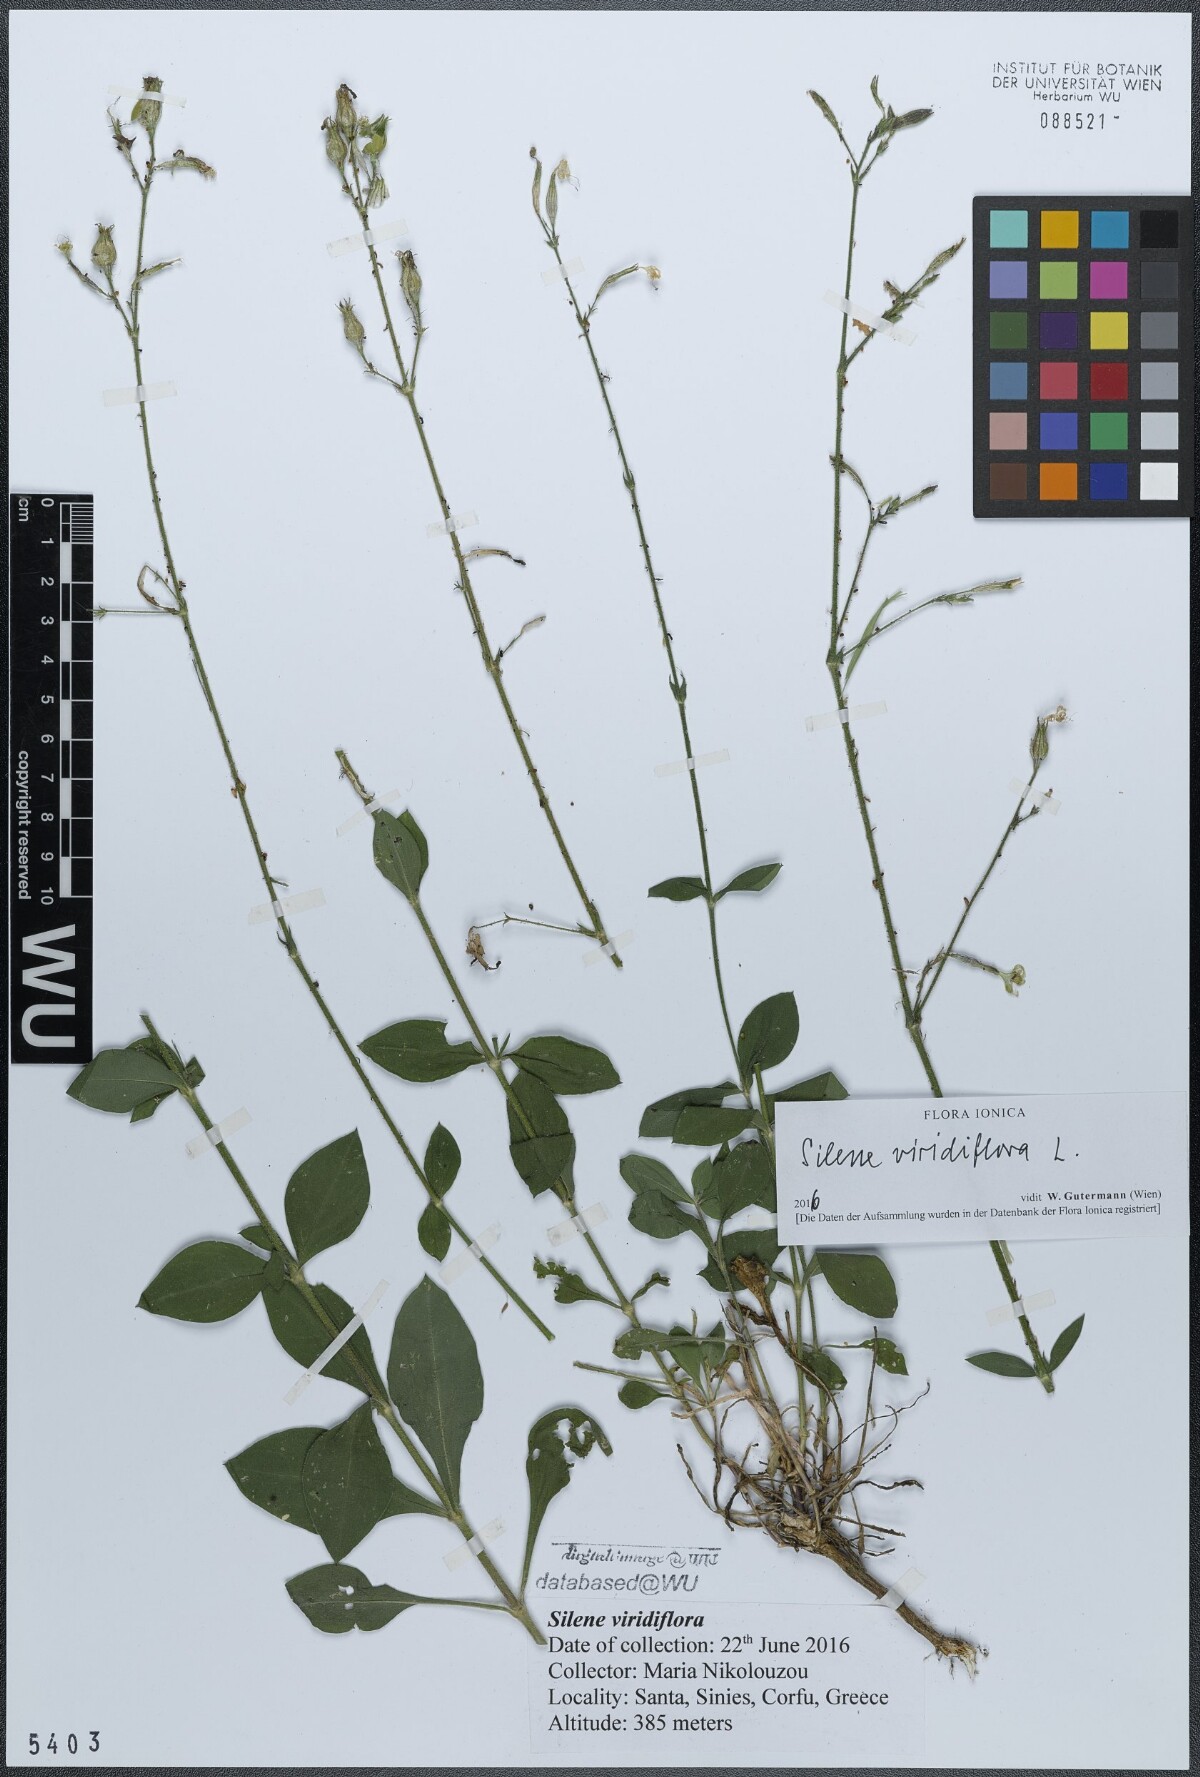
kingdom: Plantae
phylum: Tracheophyta
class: Magnoliopsida
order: Caryophyllales
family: Caryophyllaceae
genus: Silene
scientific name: Silene viridiflora
